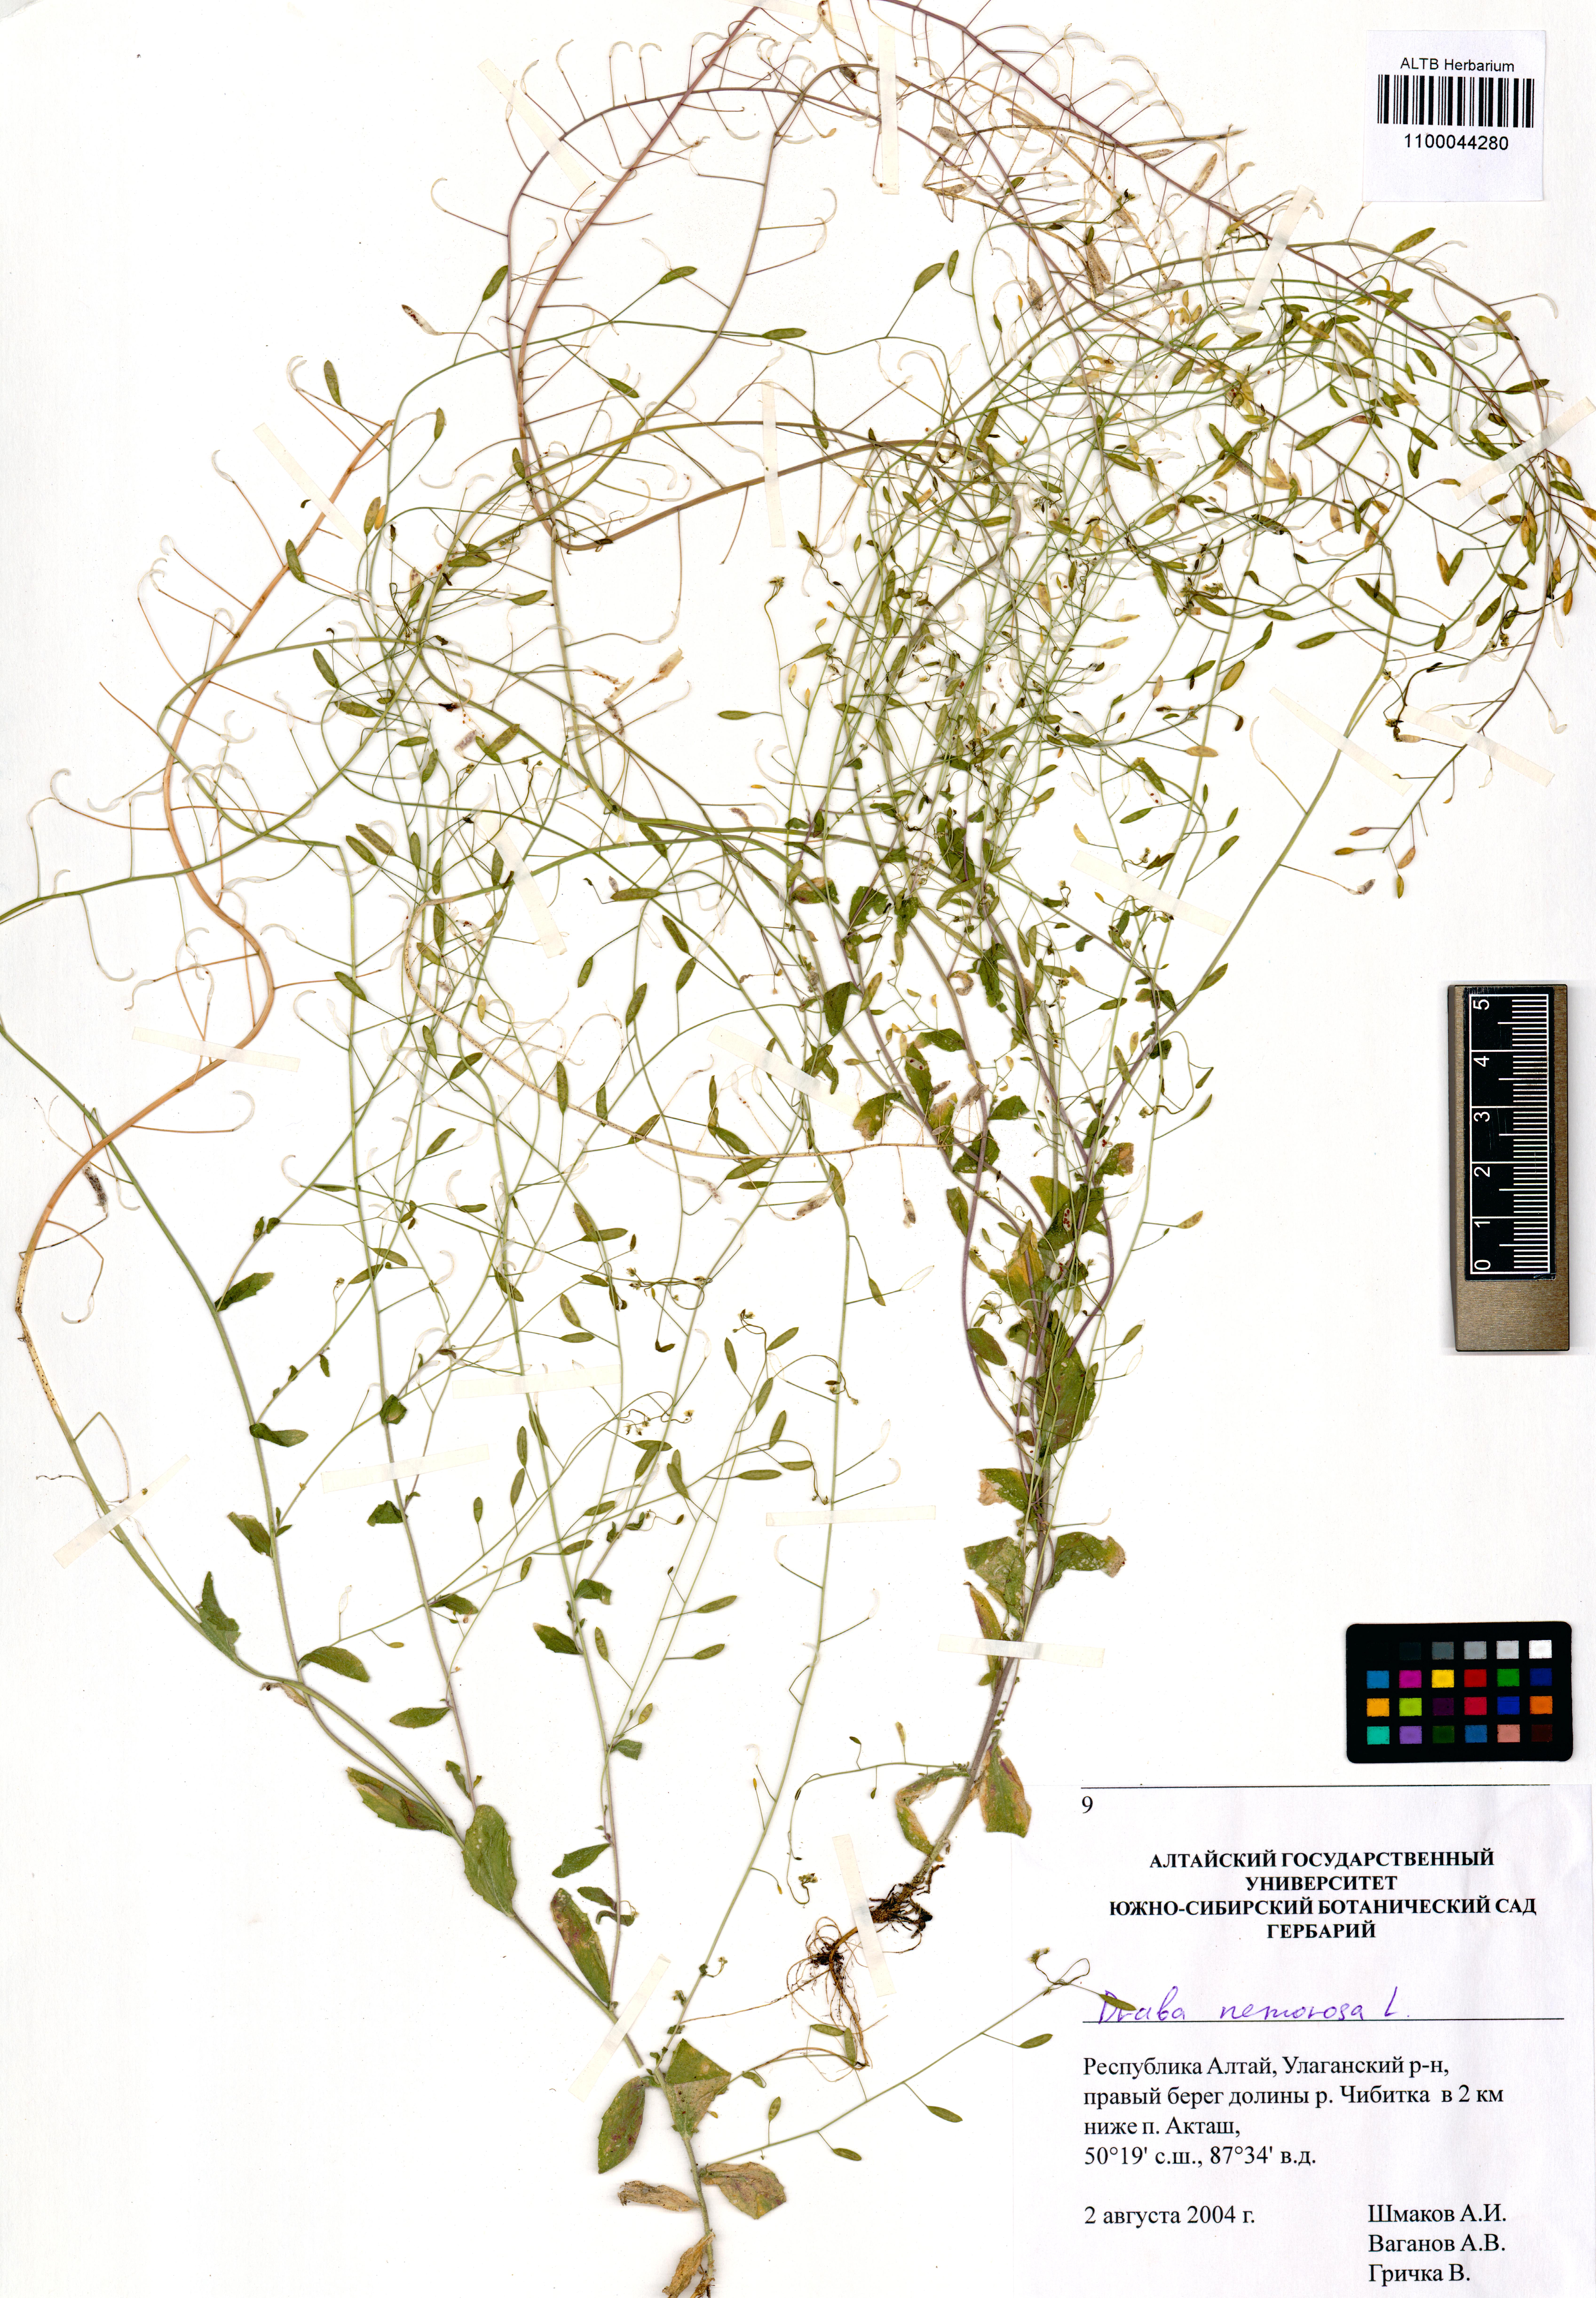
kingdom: Plantae
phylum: Tracheophyta
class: Magnoliopsida
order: Brassicales
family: Brassicaceae
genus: Draba
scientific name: Draba nemorosa
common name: Wood whitlow-grass
